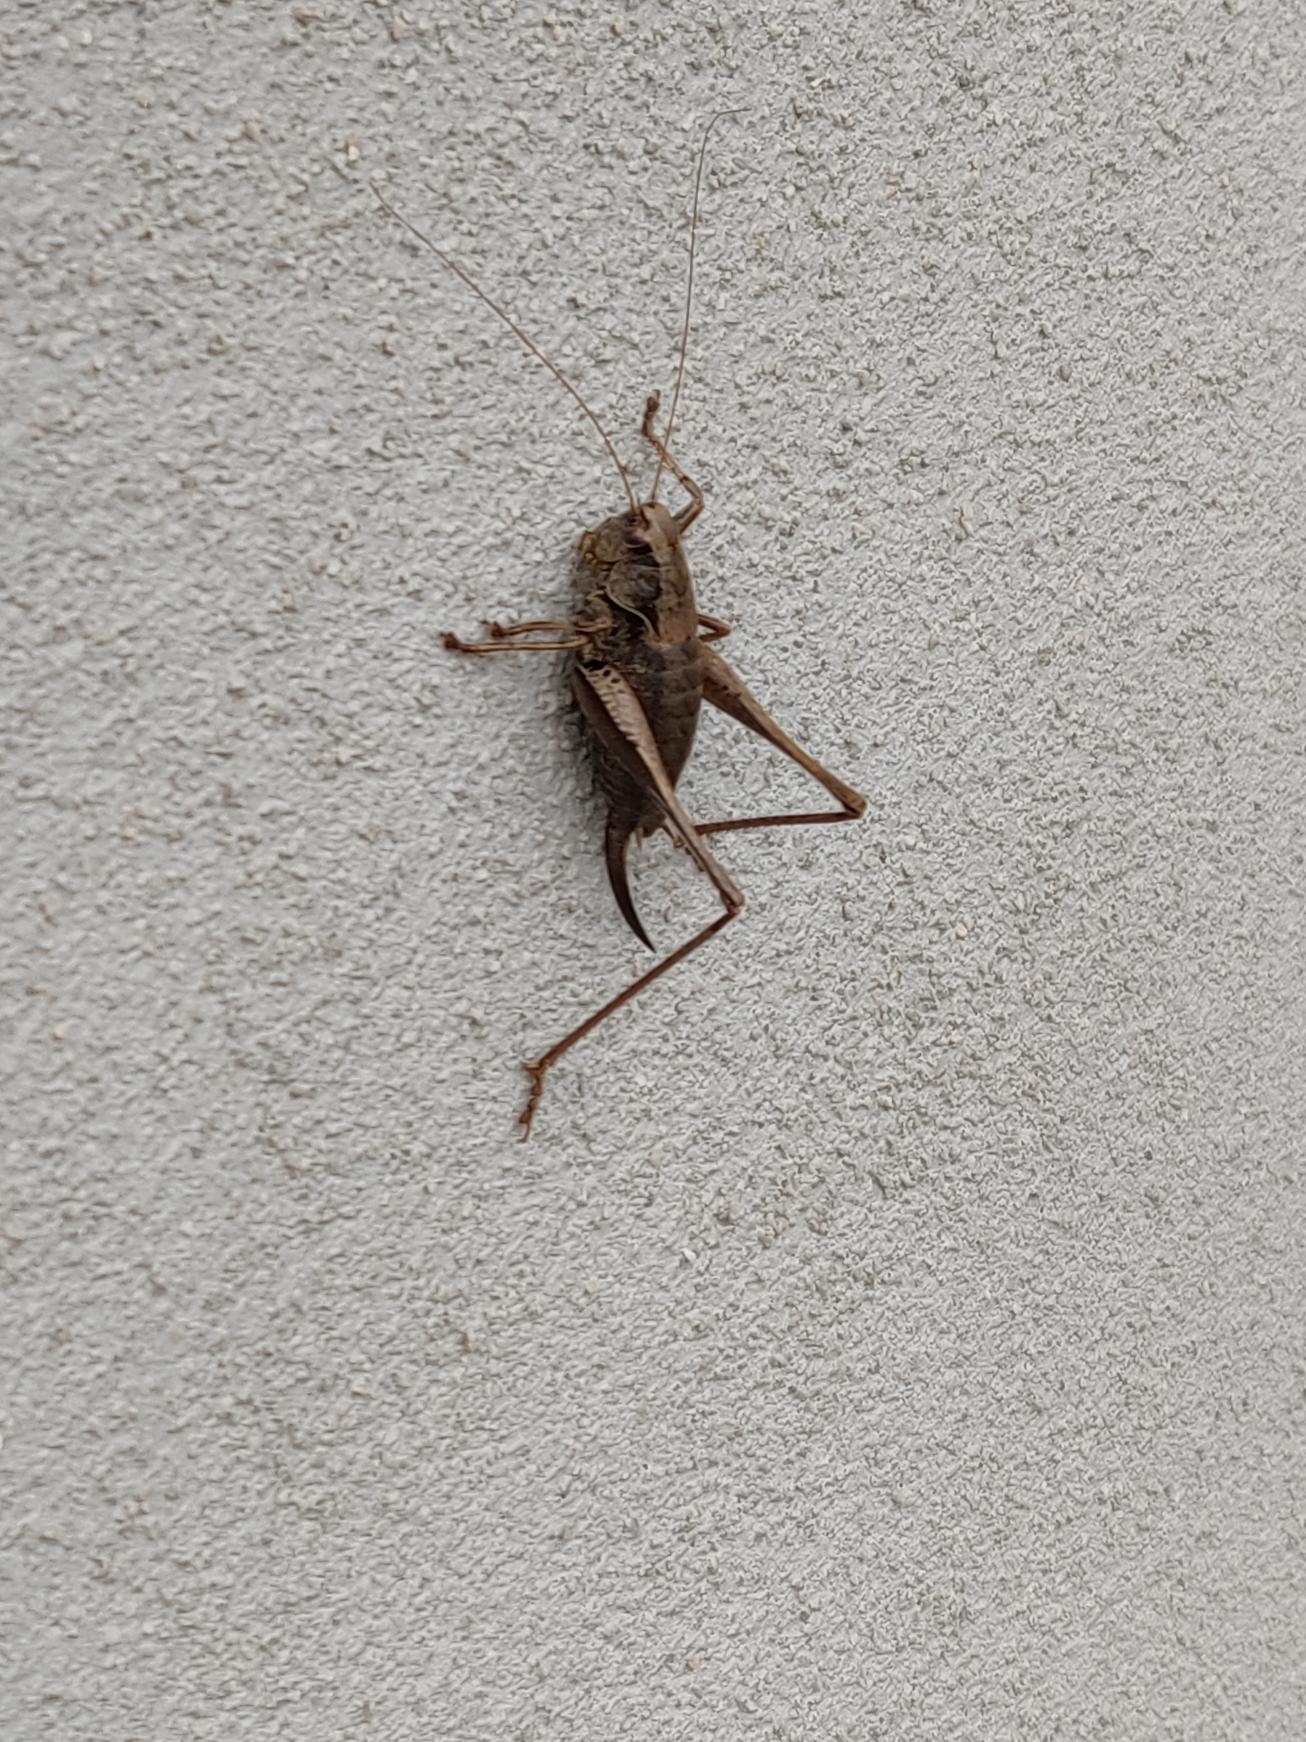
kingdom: Animalia
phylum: Arthropoda
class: Insecta
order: Orthoptera
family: Tettigoniidae
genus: Pholidoptera
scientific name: Pholidoptera griseoaptera
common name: Buskgræshoppe
